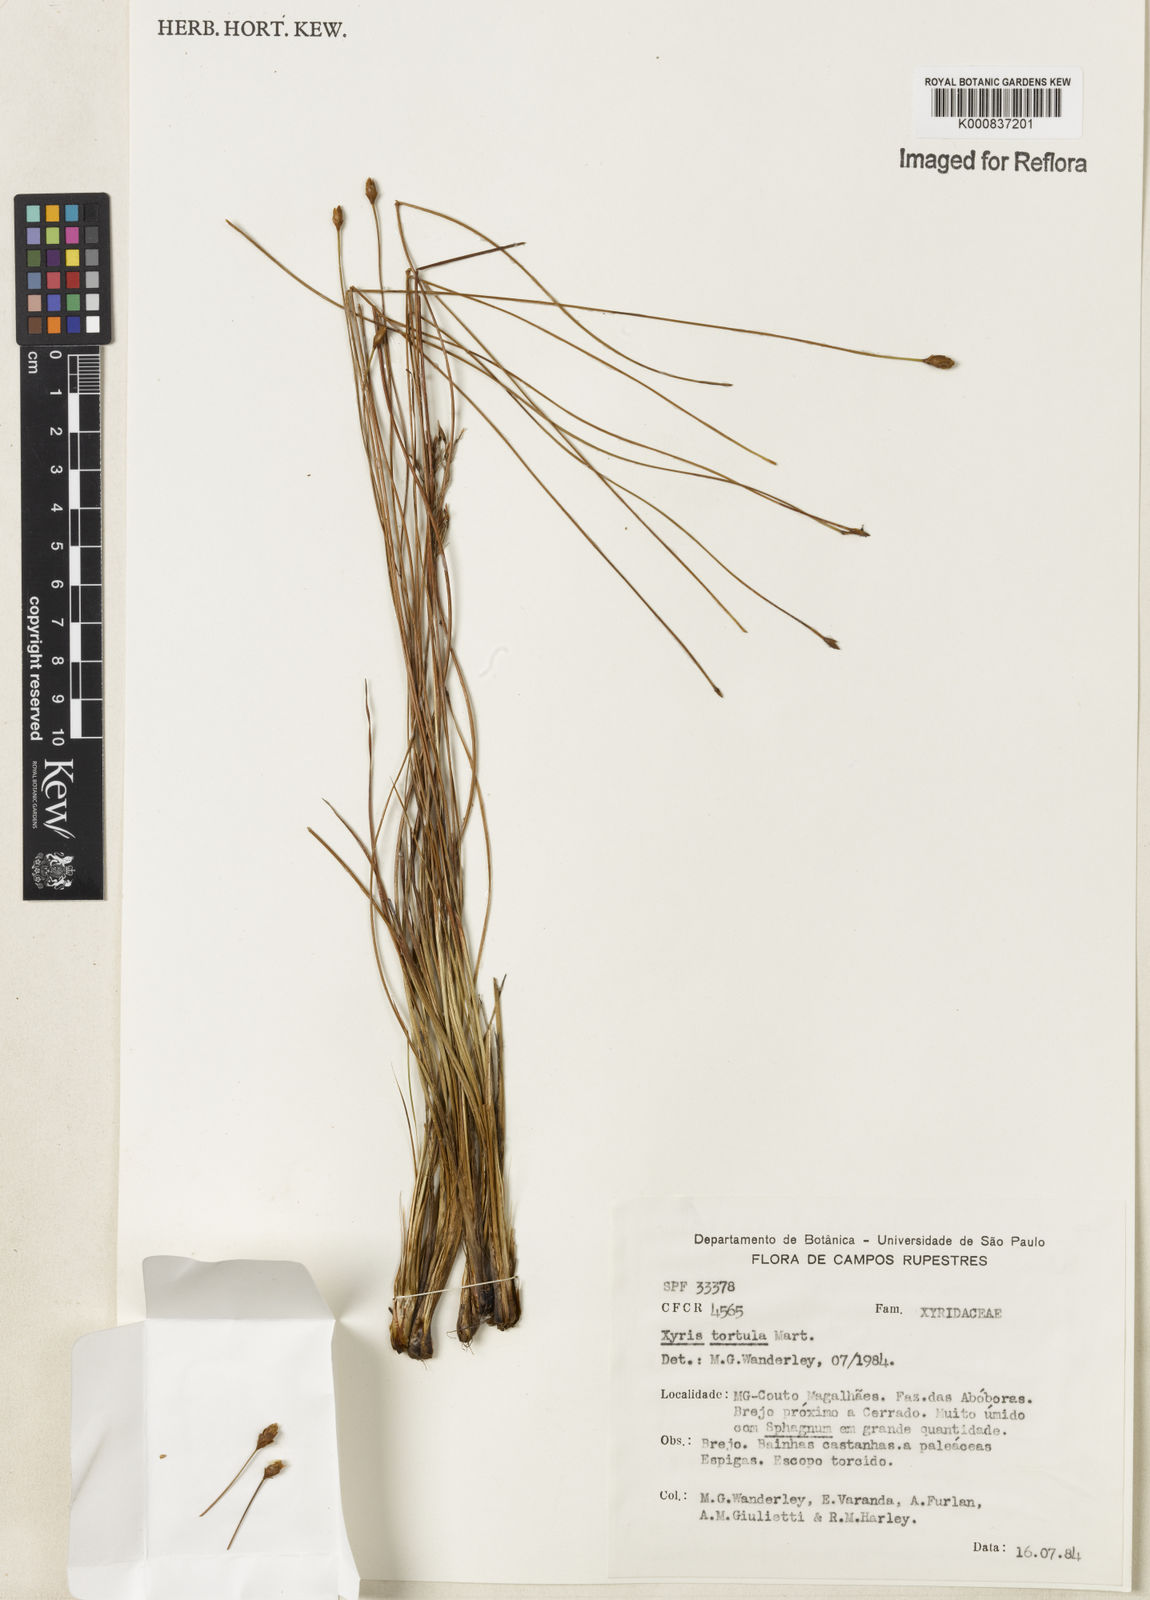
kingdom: Plantae
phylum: Tracheophyta
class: Liliopsida
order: Poales
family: Xyridaceae
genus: Xyris
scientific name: Xyris tortula
